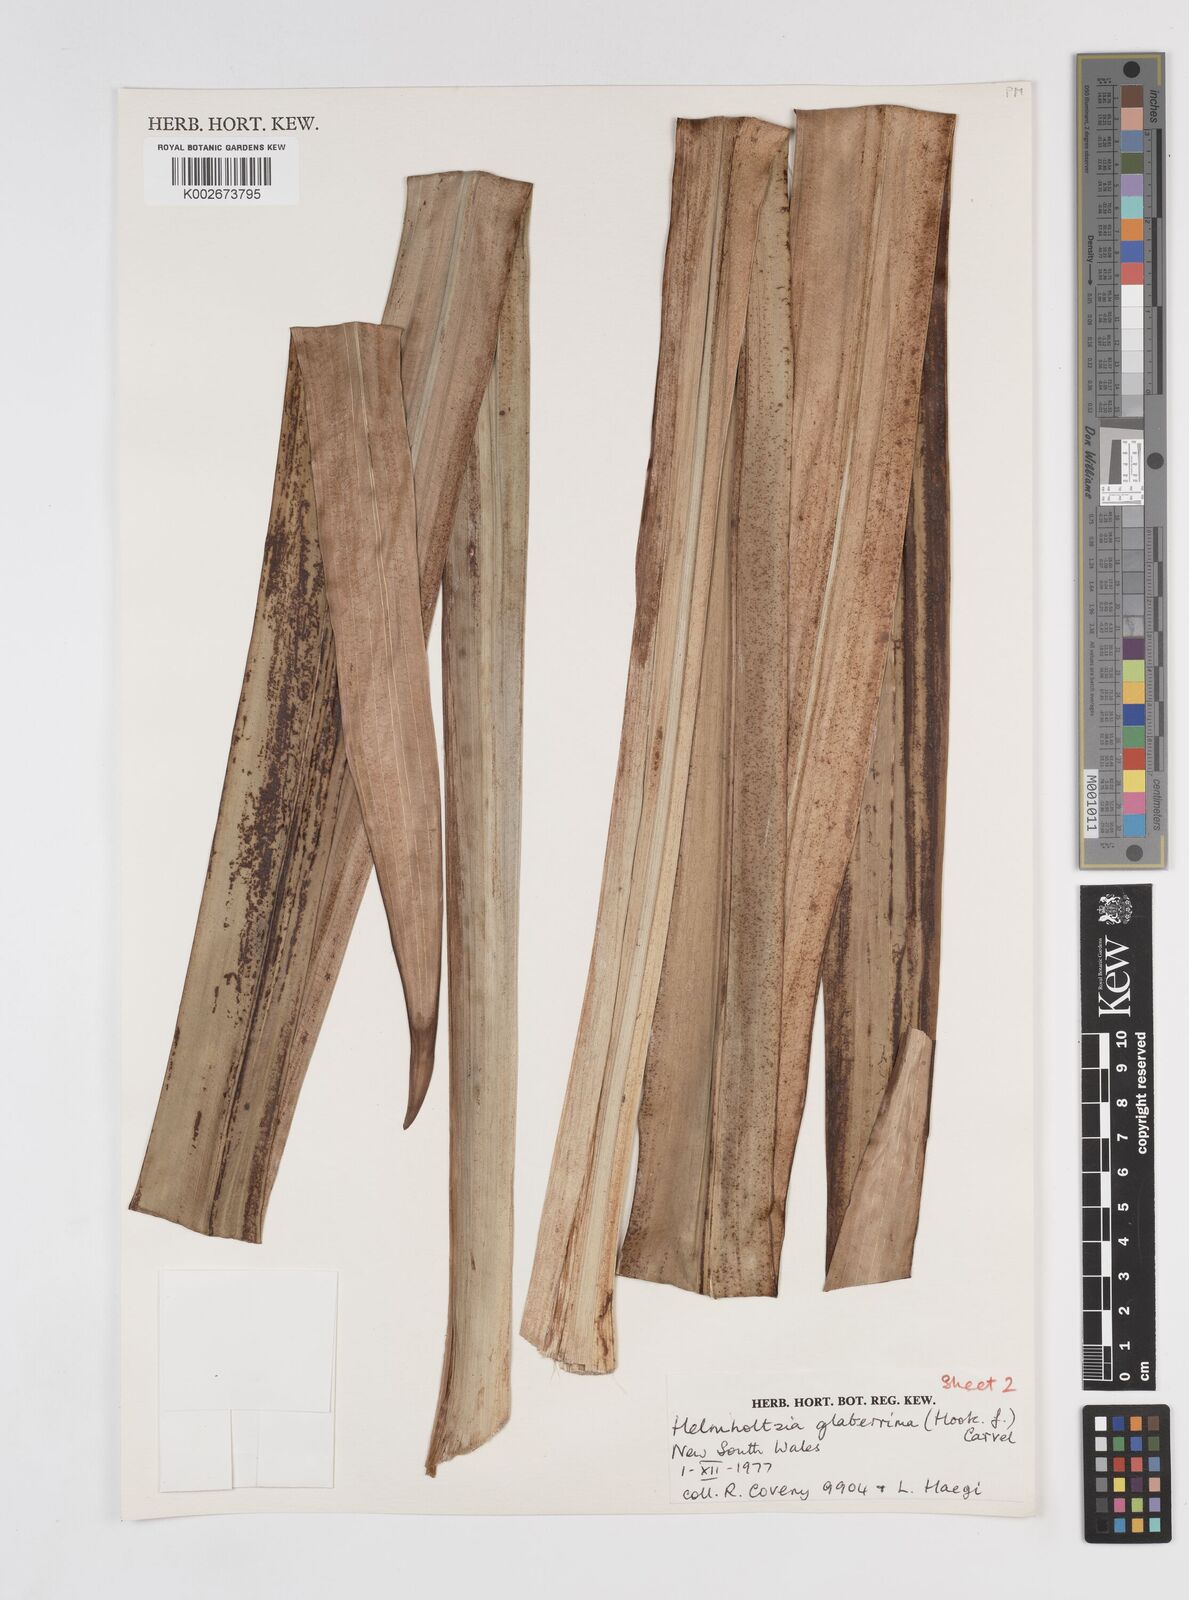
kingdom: Plantae
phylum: Tracheophyta
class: Liliopsida
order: Commelinales
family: Philydraceae
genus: Helmholtzia
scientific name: Helmholtzia glaberrima
